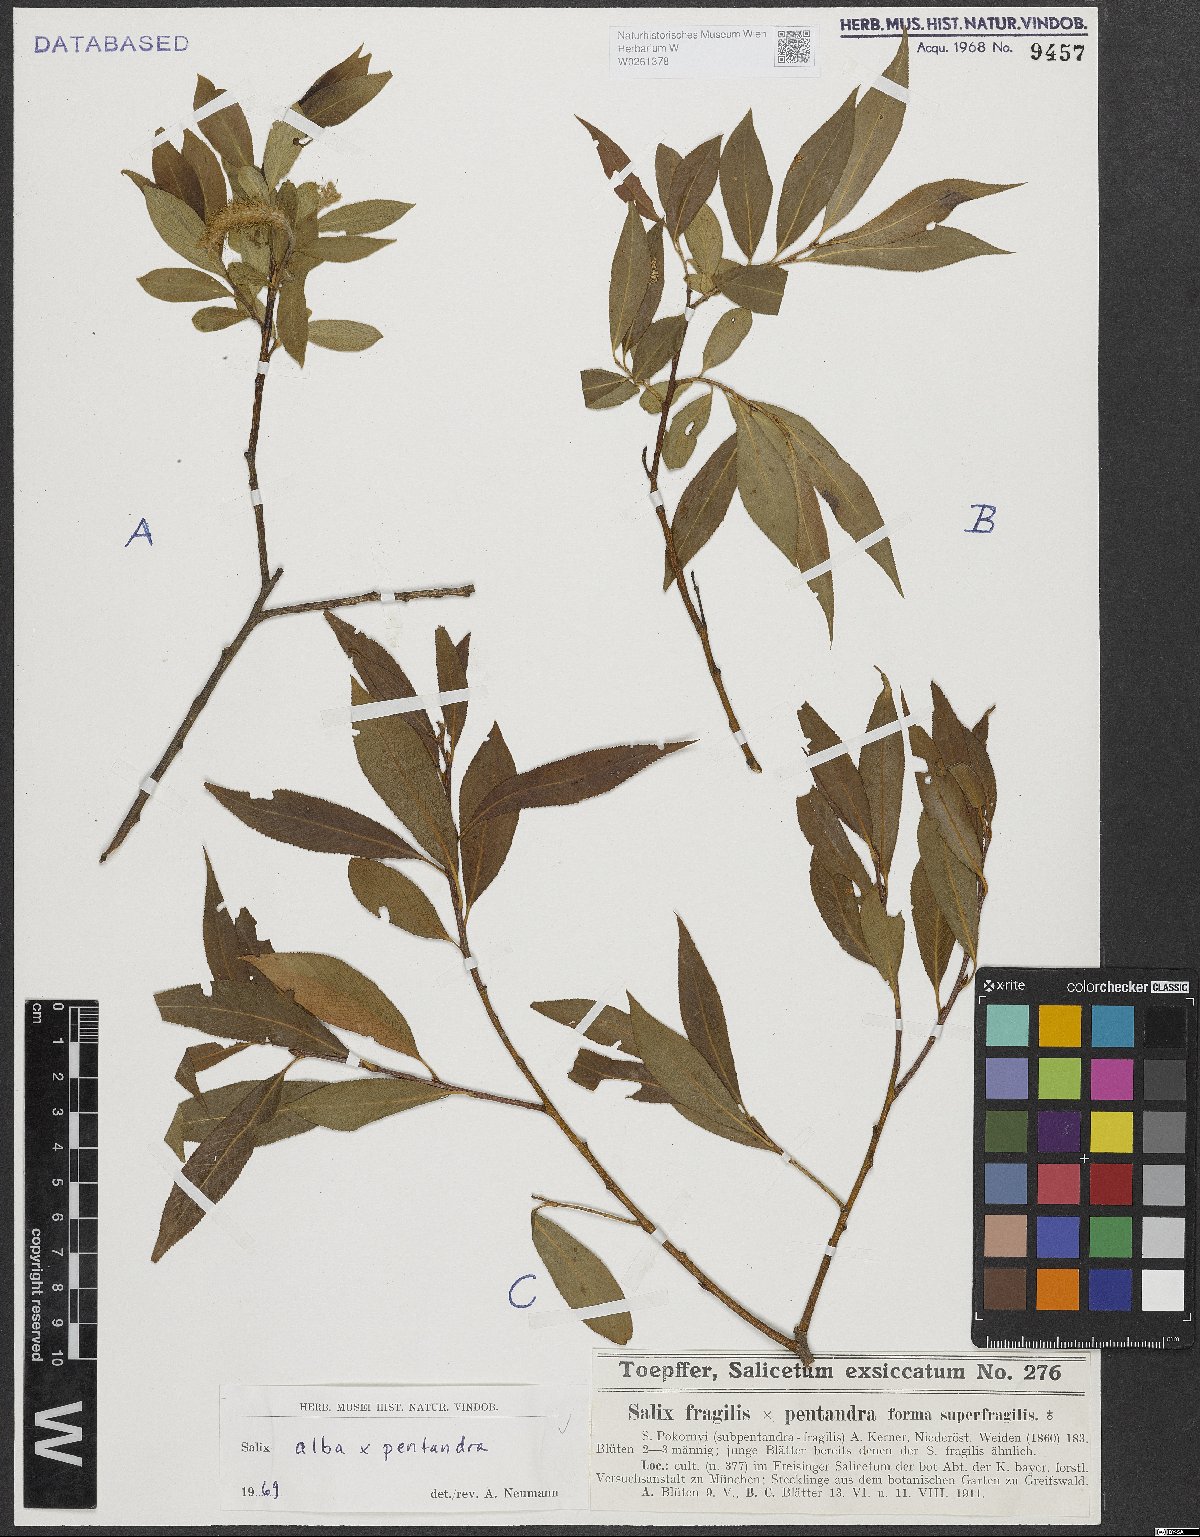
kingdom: Plantae
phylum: Tracheophyta
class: Magnoliopsida
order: Malpighiales
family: Salicaceae
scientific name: Salicaceae
